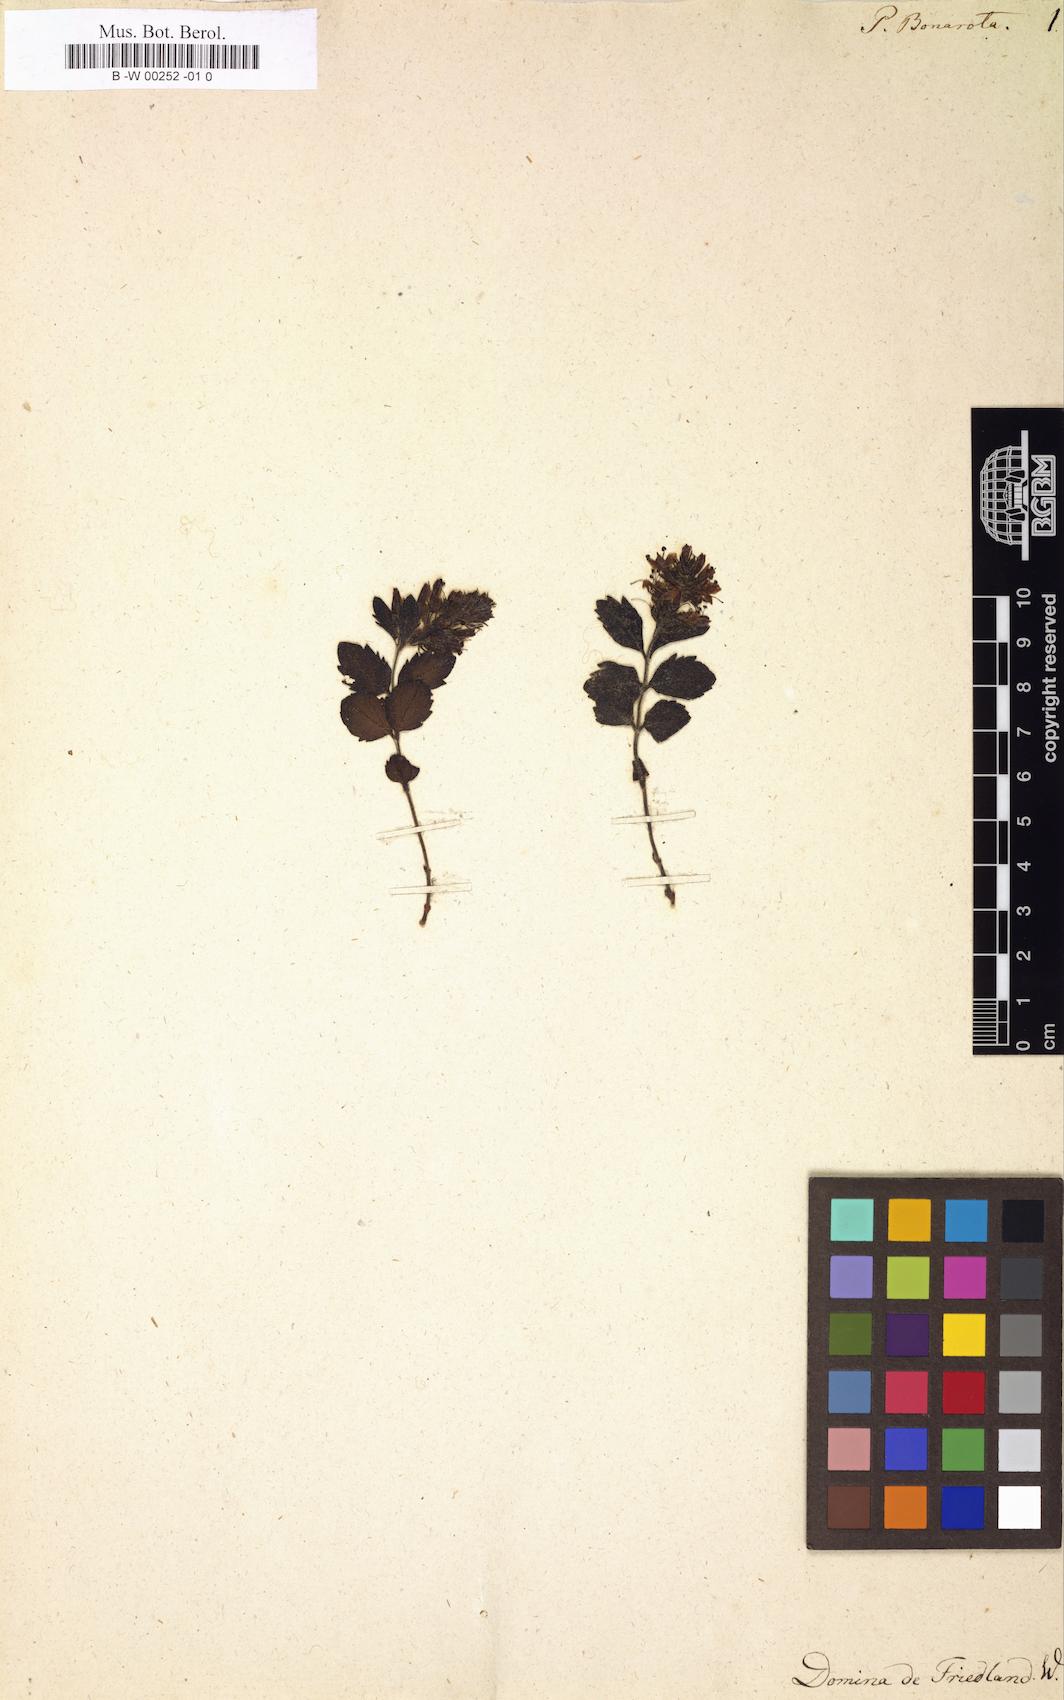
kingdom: Plantae
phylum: Tracheophyta
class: Magnoliopsida
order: Lamiales
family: Plantaginaceae
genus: Paederota
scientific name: Paederota bonarota
